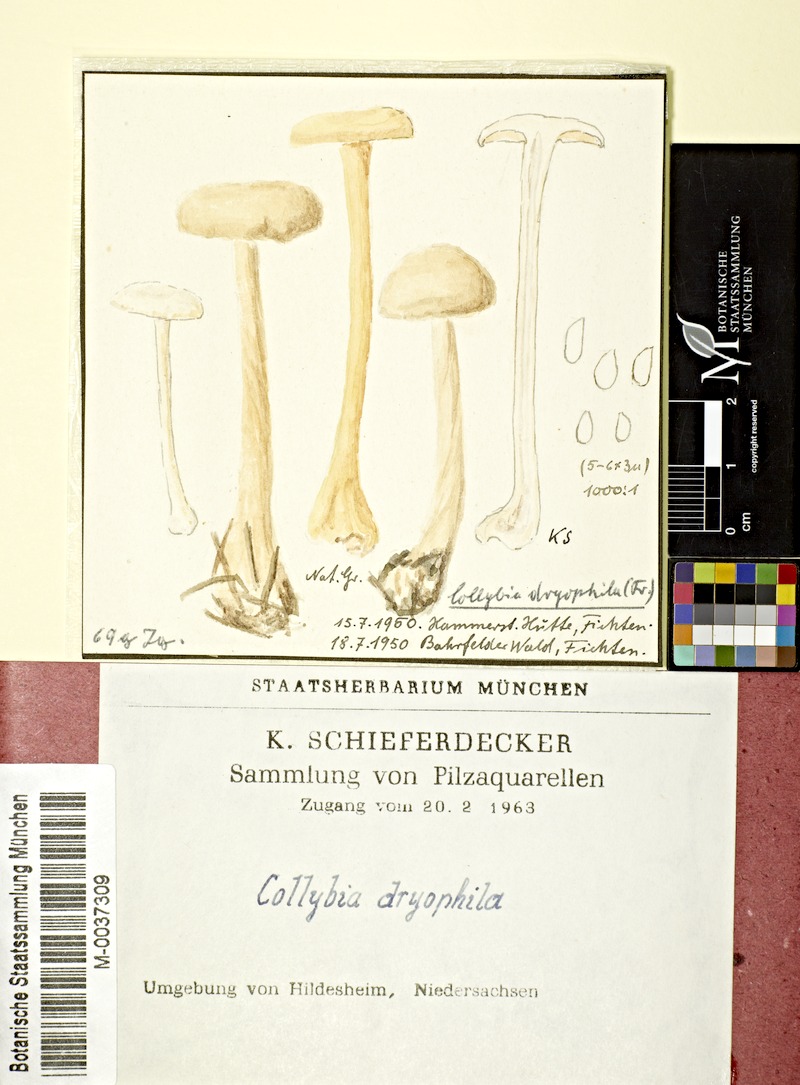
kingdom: Fungi
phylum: Basidiomycota
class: Agaricomycetes
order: Agaricales
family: Omphalotaceae
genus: Gymnopus
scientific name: Gymnopus dryophilus
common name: Penny top
